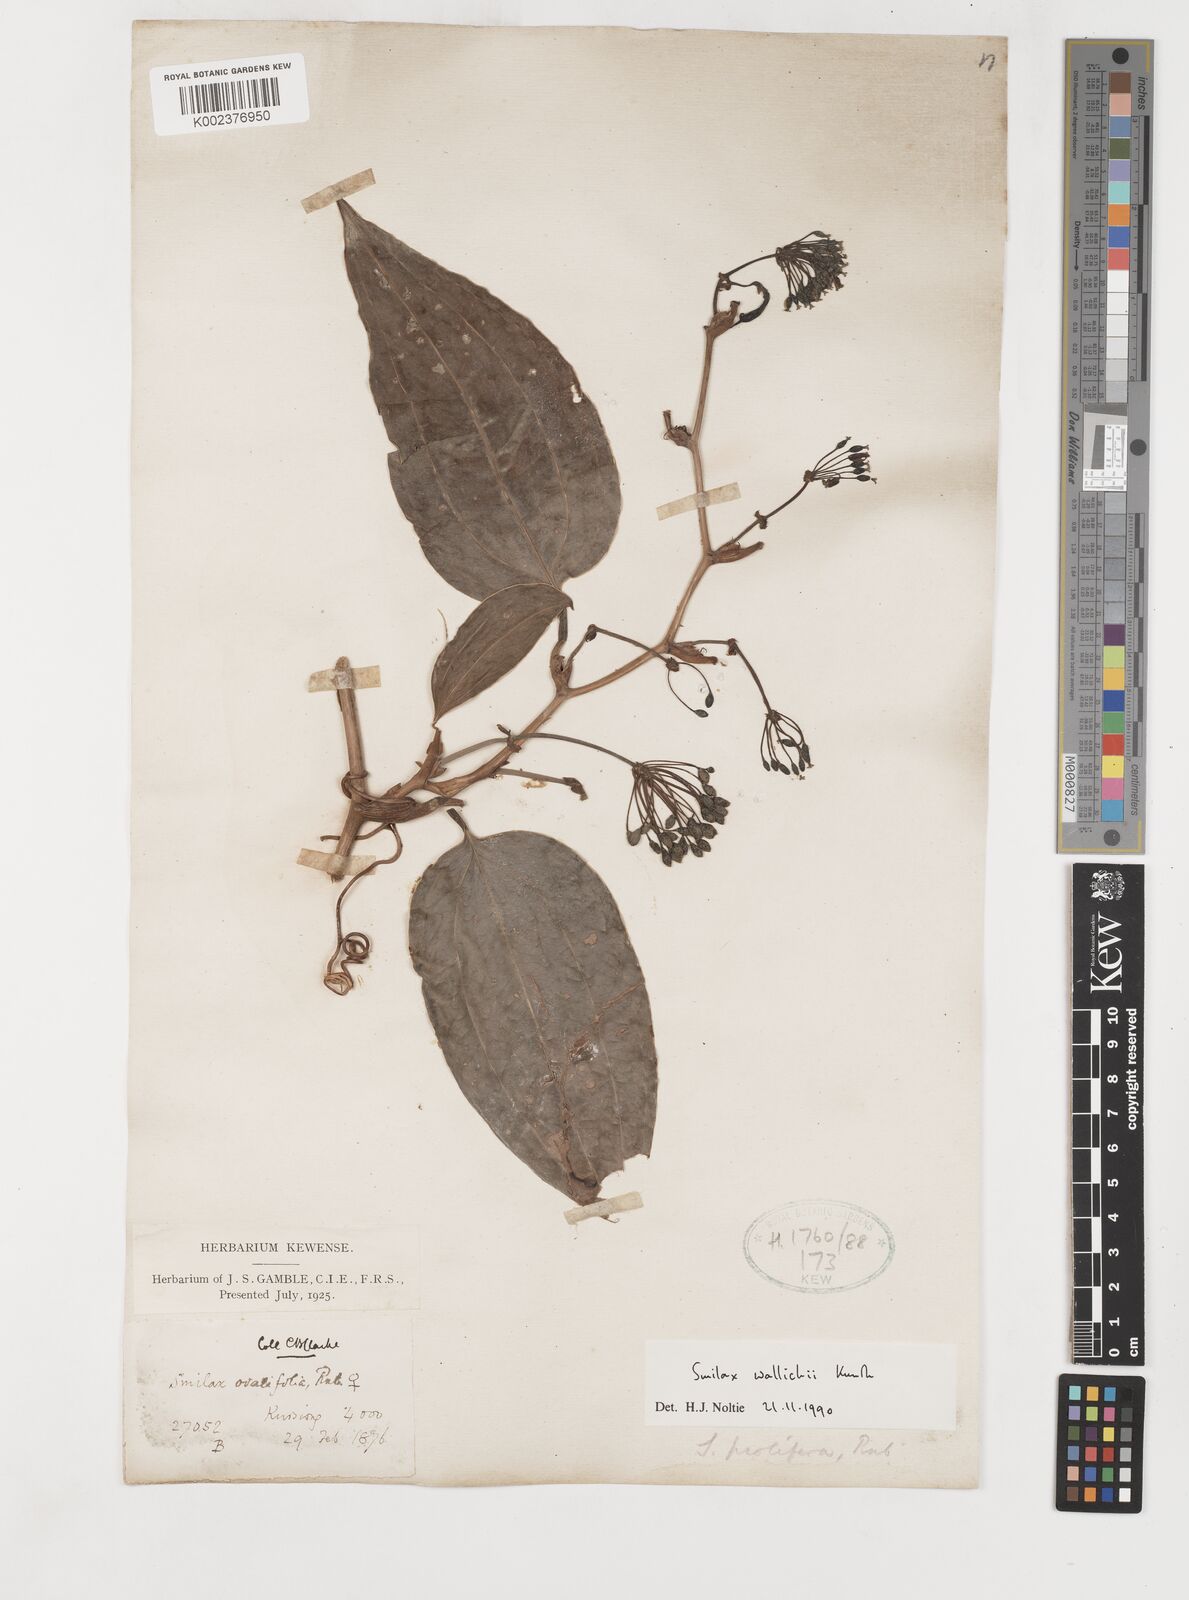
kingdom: Plantae
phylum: Tracheophyta
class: Liliopsida
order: Liliales
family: Smilacaceae
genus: Smilax
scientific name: Smilax wallichii
